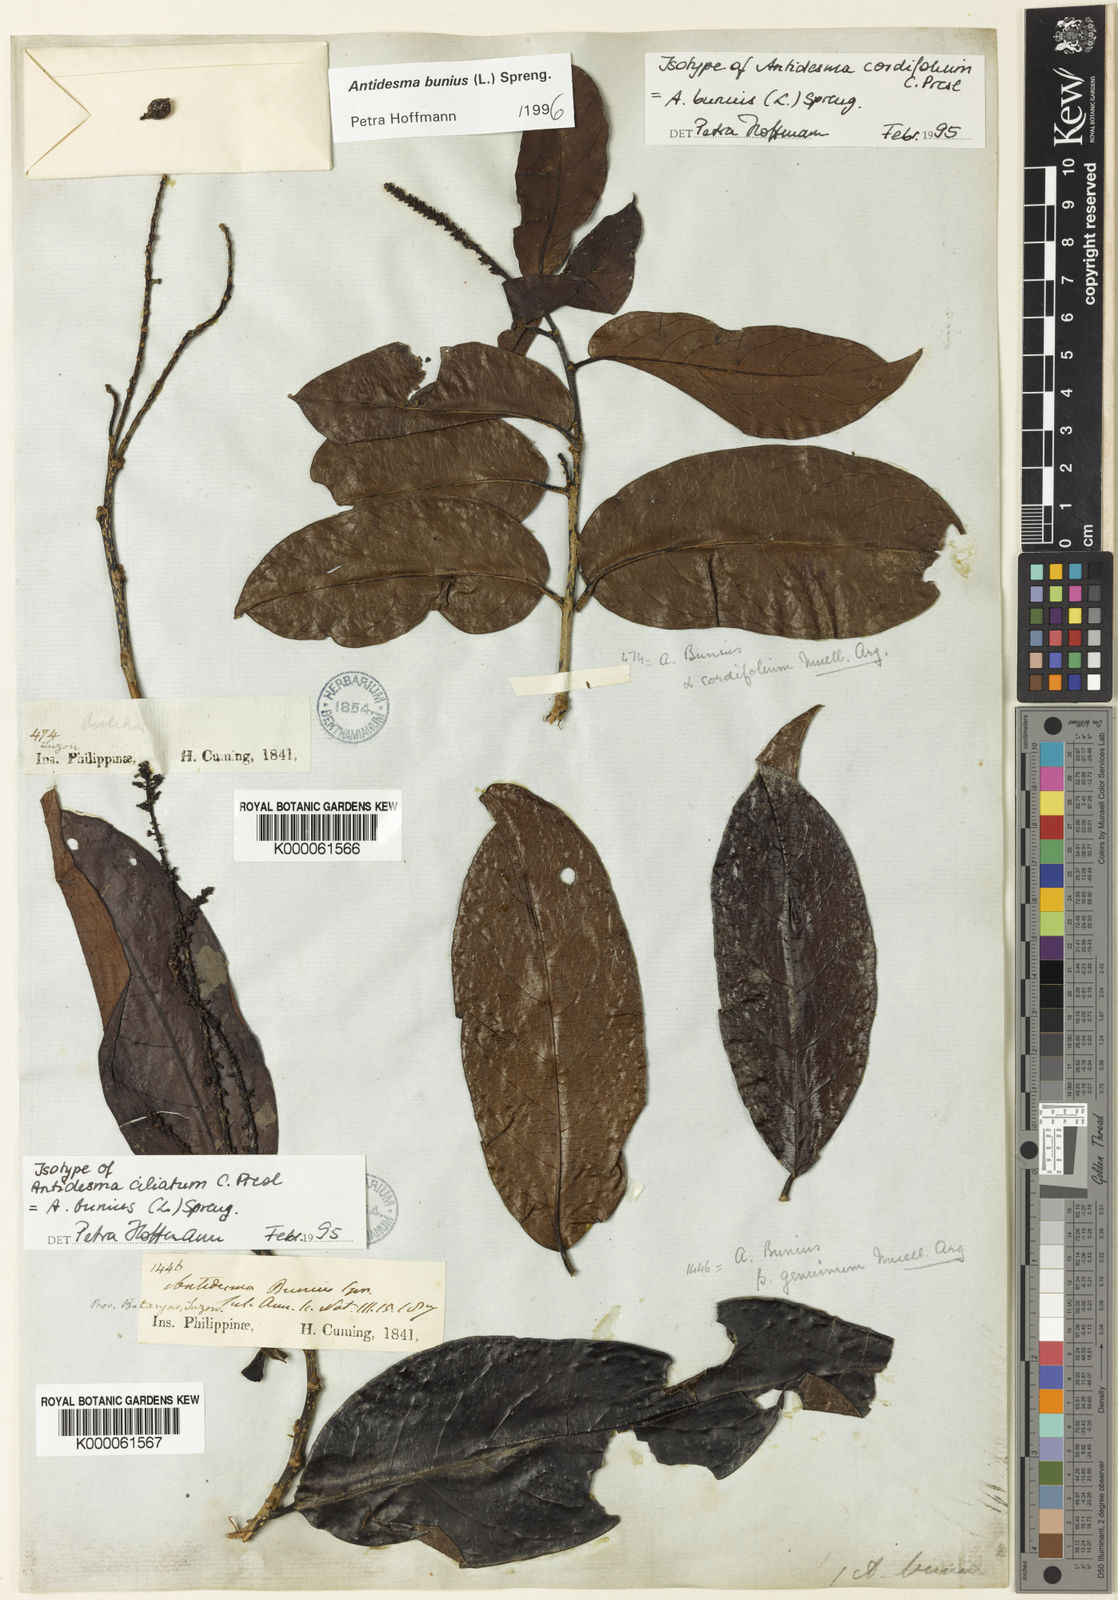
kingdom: Plantae
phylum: Tracheophyta
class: Magnoliopsida
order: Malpighiales
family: Phyllanthaceae
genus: Antidesma
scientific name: Antidesma bunius
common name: Chinese-laurel
